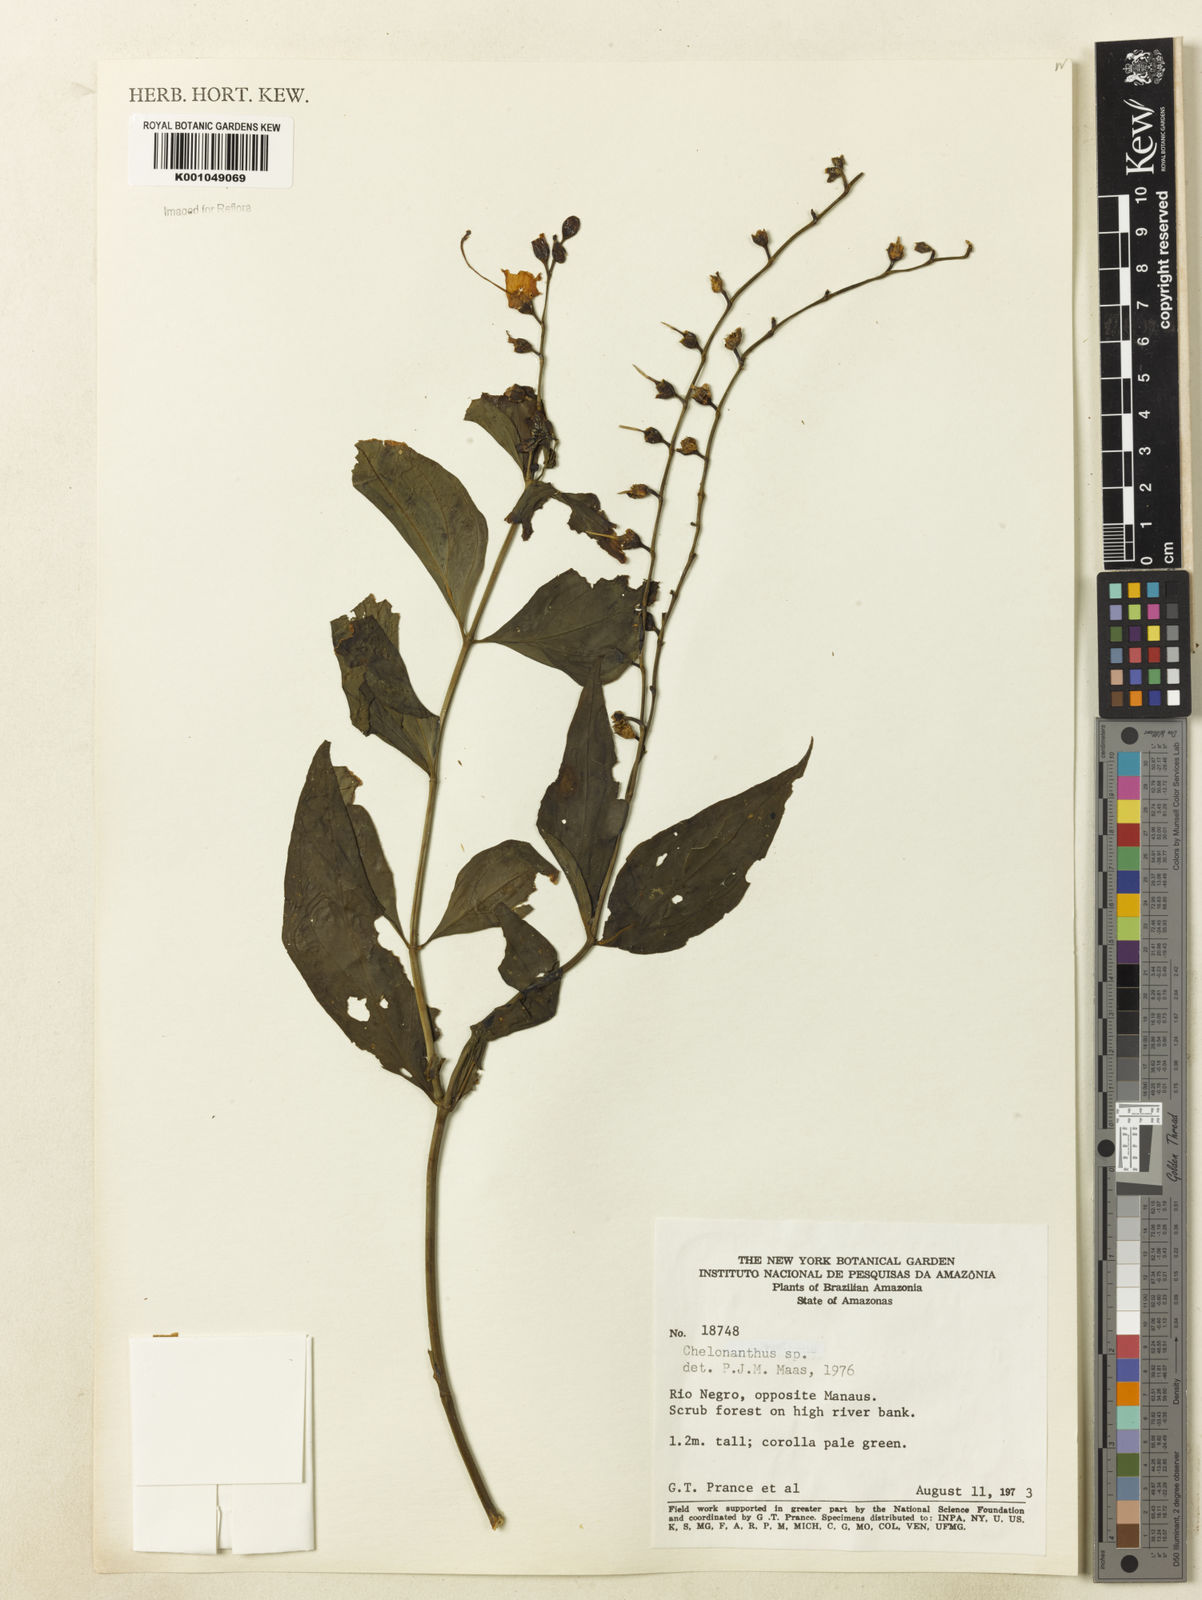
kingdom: Plantae
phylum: Tracheophyta
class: Magnoliopsida
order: Gentianales
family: Gentianaceae
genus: Chelonanthus
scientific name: Chelonanthus
